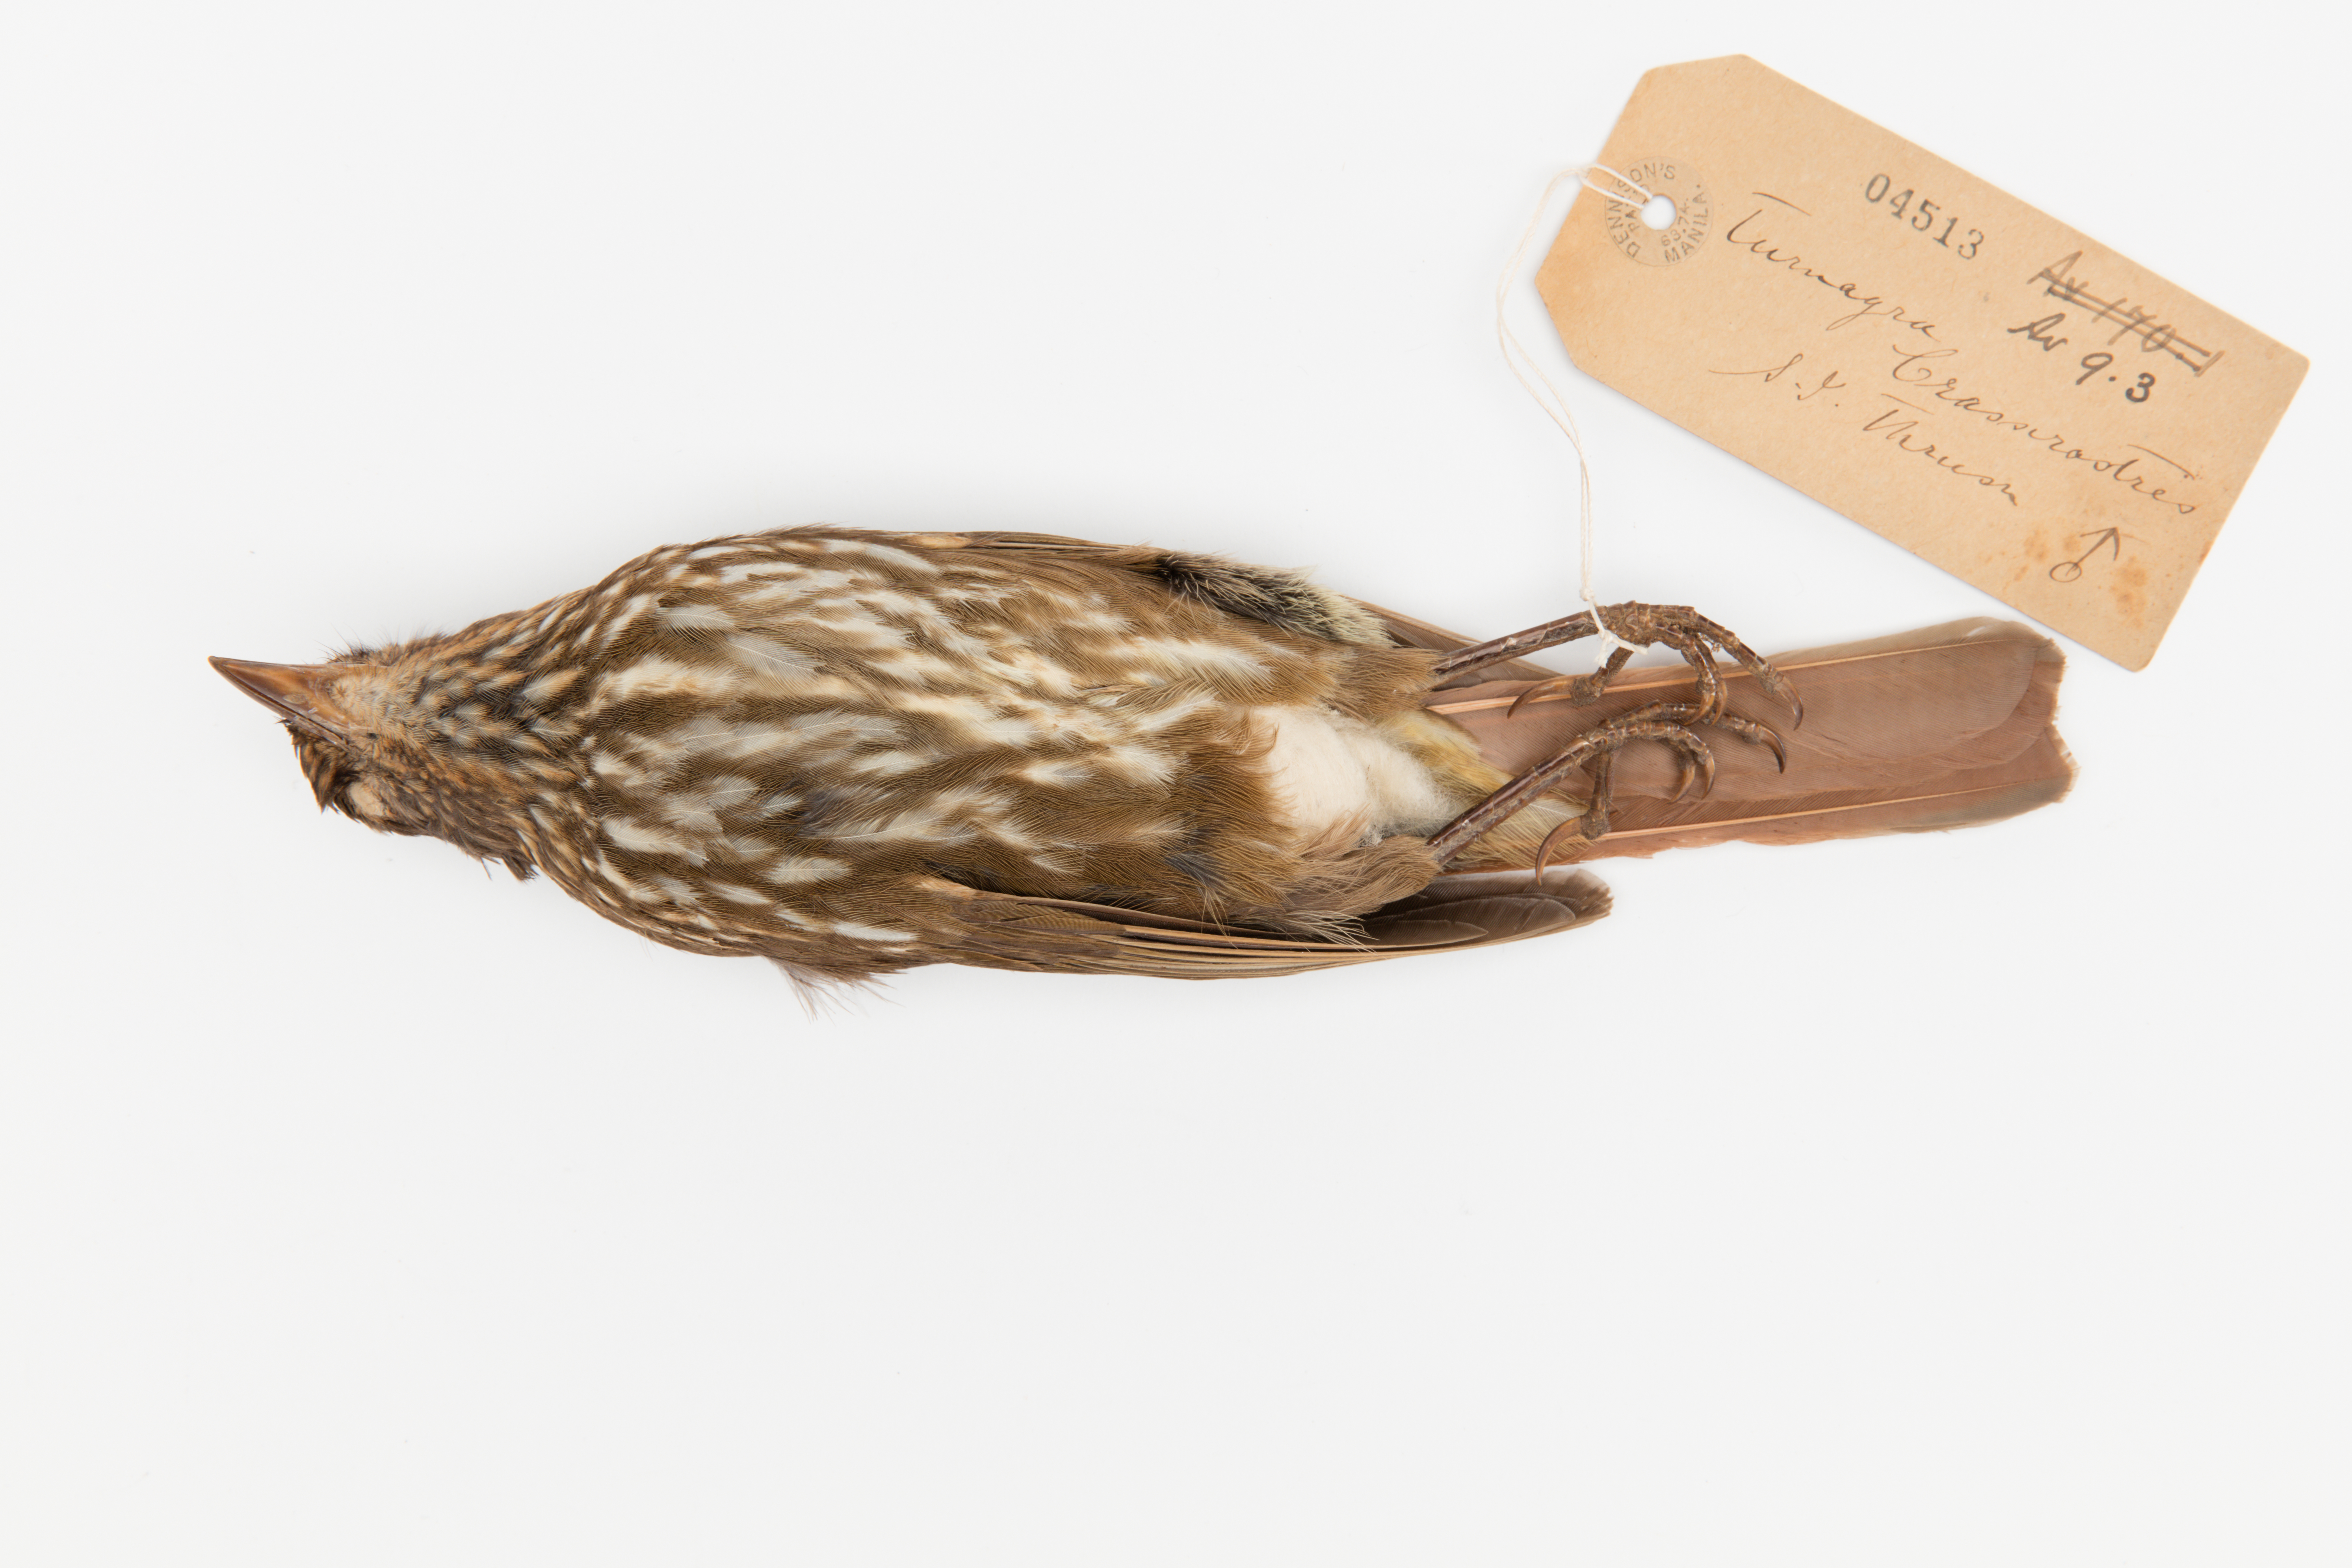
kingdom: Animalia
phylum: Chordata
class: Aves
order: Passeriformes
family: Ptilonorhynchidae
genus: Turnagra
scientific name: Turnagra capensis
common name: South island piopio
